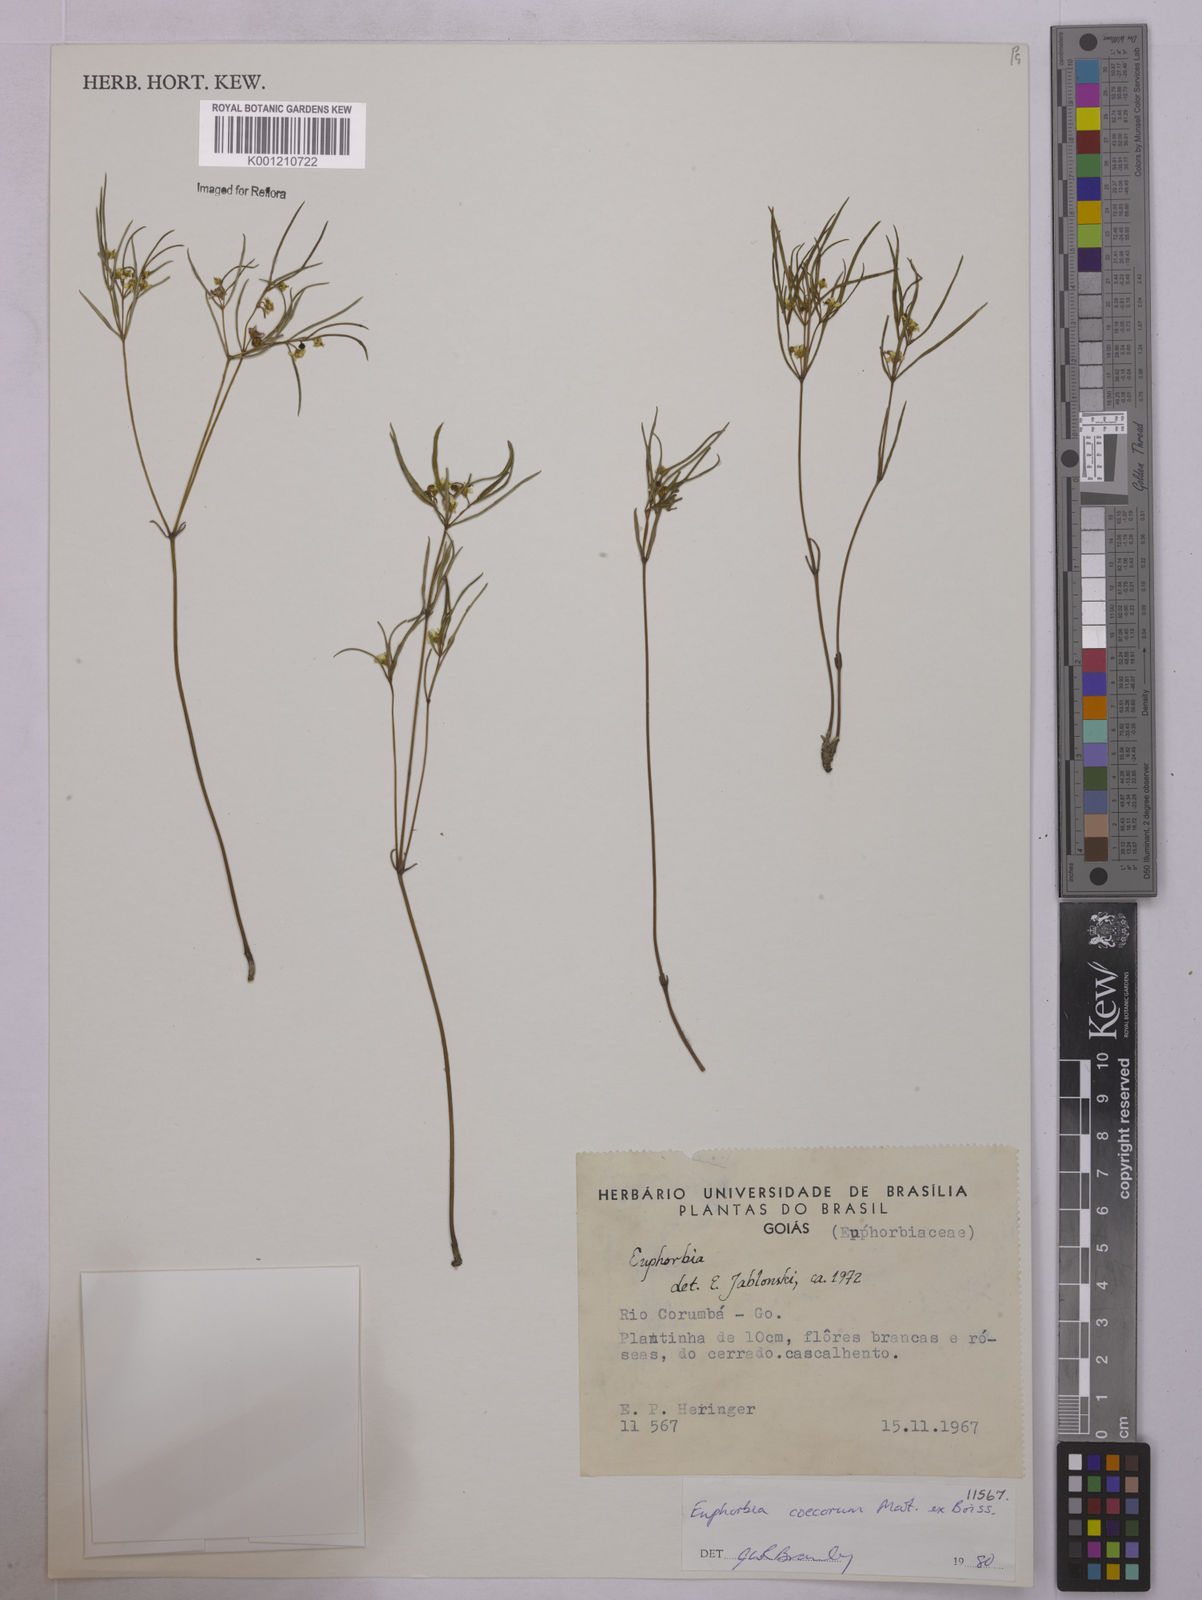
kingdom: Plantae
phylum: Tracheophyta
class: Magnoliopsida
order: Malpighiales
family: Euphorbiaceae
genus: Euphorbia
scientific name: Euphorbia potentilloides
